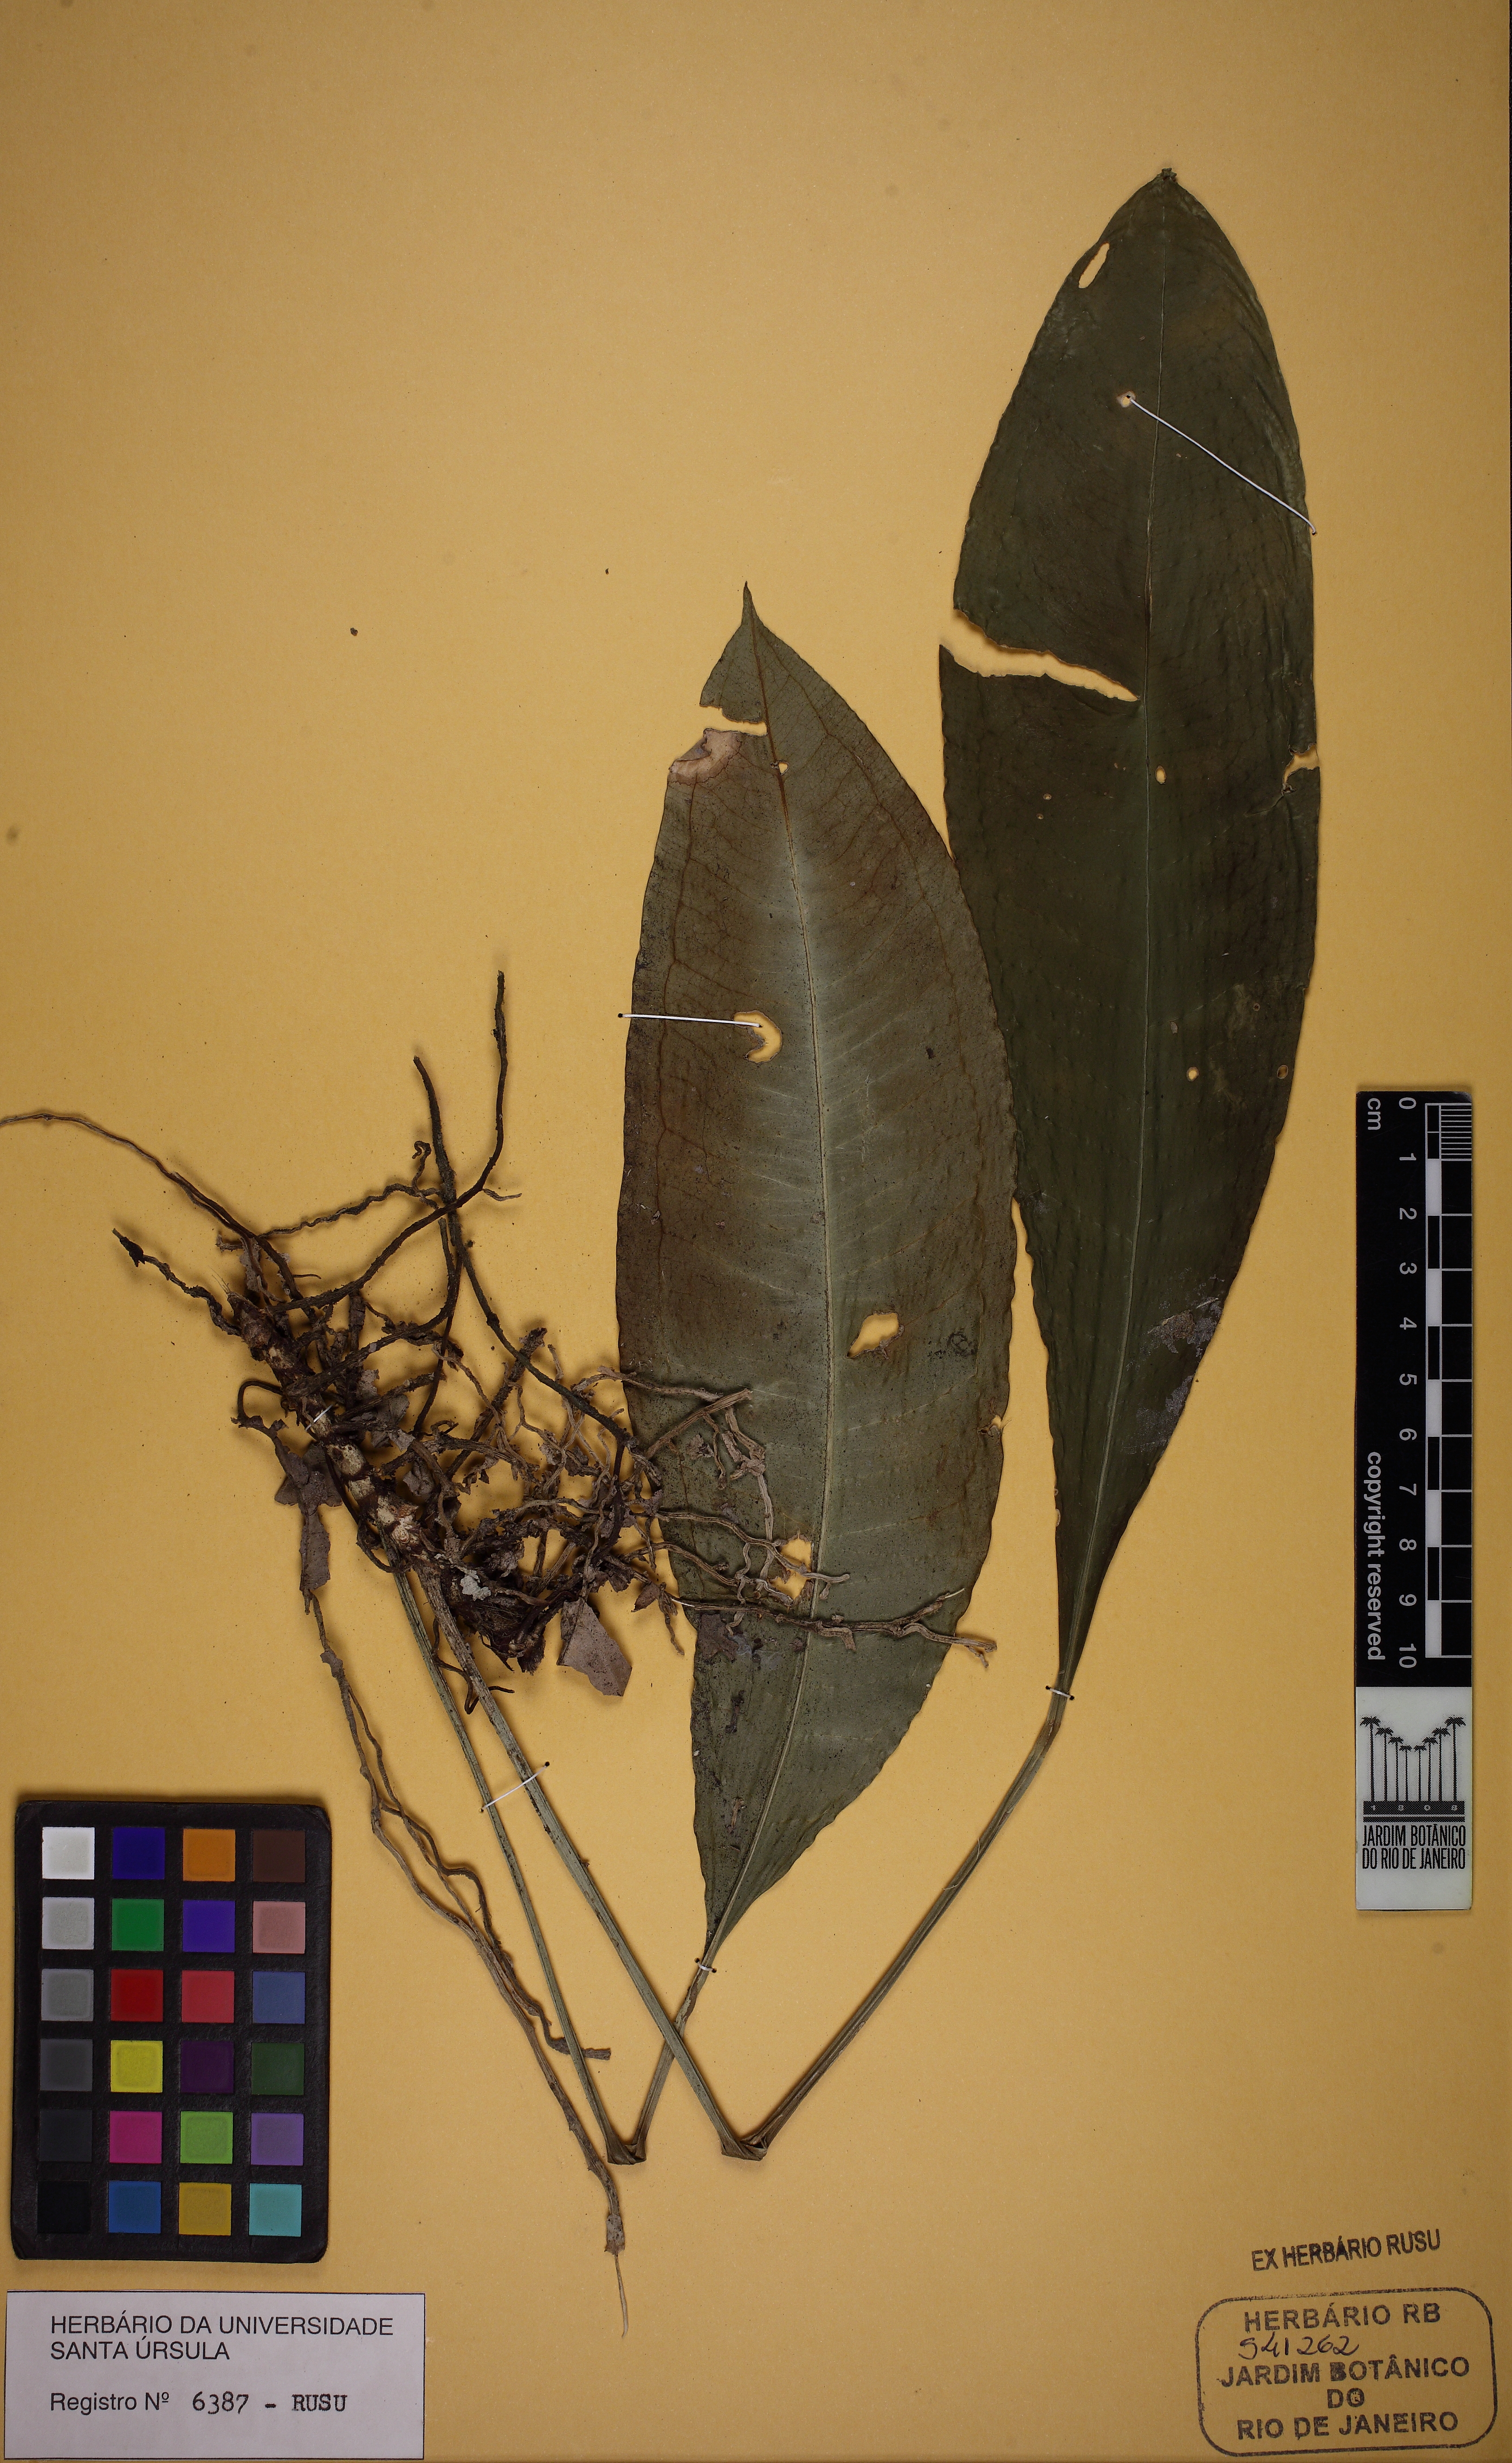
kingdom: Plantae
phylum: Tracheophyta
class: Liliopsida
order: Alismatales
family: Araceae
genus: Anthurium
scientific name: Anthurium intermedium
